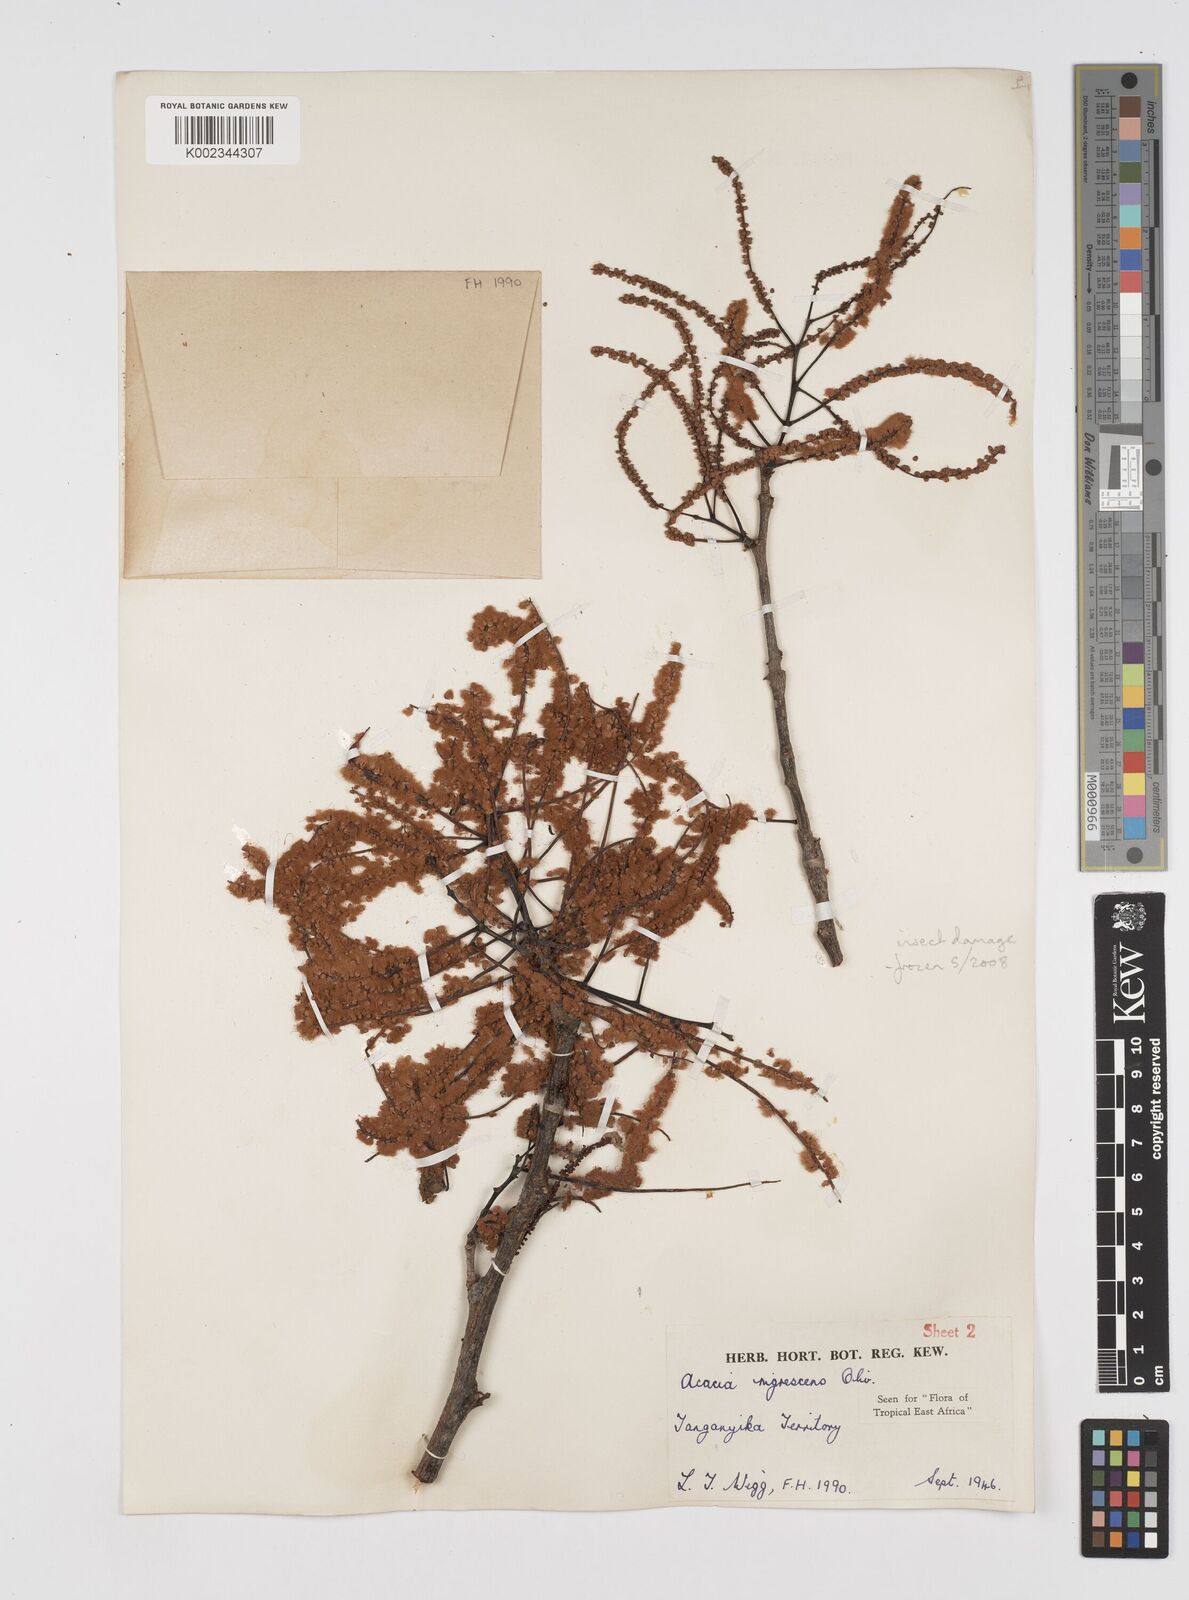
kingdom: Plantae
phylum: Tracheophyta
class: Magnoliopsida
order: Fabales
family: Fabaceae
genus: Senegalia
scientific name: Senegalia nigrescens
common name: Knobthorn
